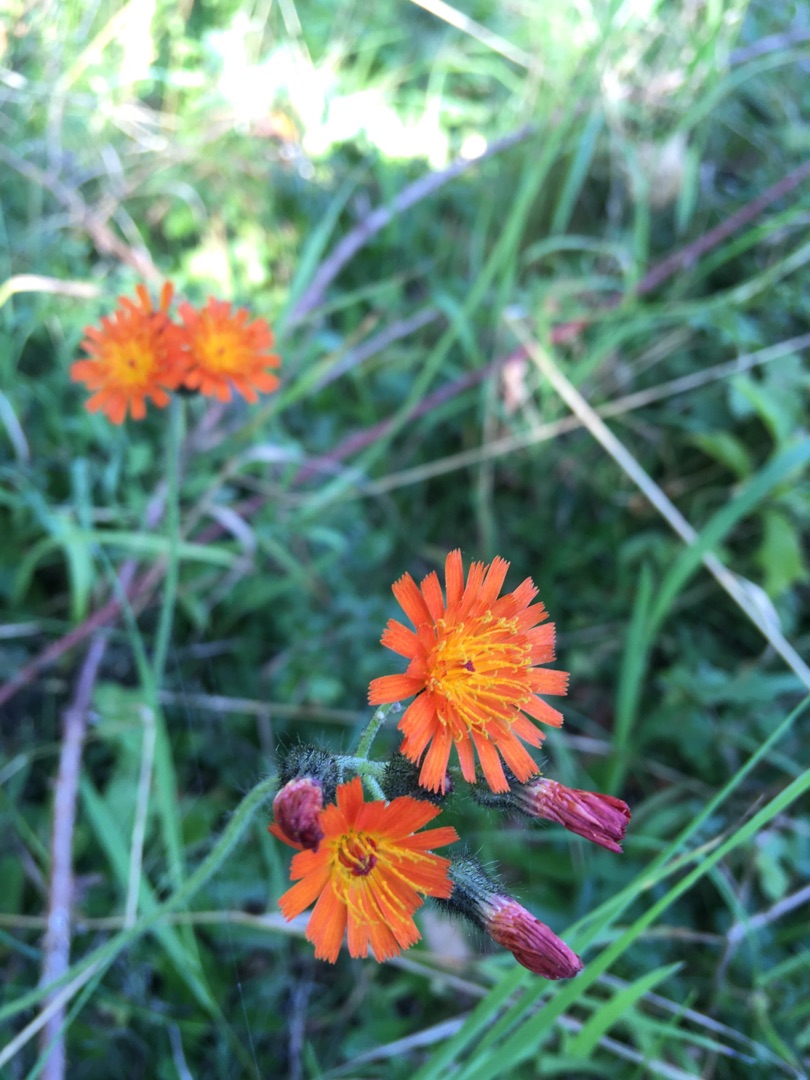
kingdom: Plantae
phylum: Tracheophyta
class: Magnoliopsida
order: Asterales
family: Asteraceae
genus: Pilosella
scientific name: Pilosella aurantiaca
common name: Pomerans-høgeurt
